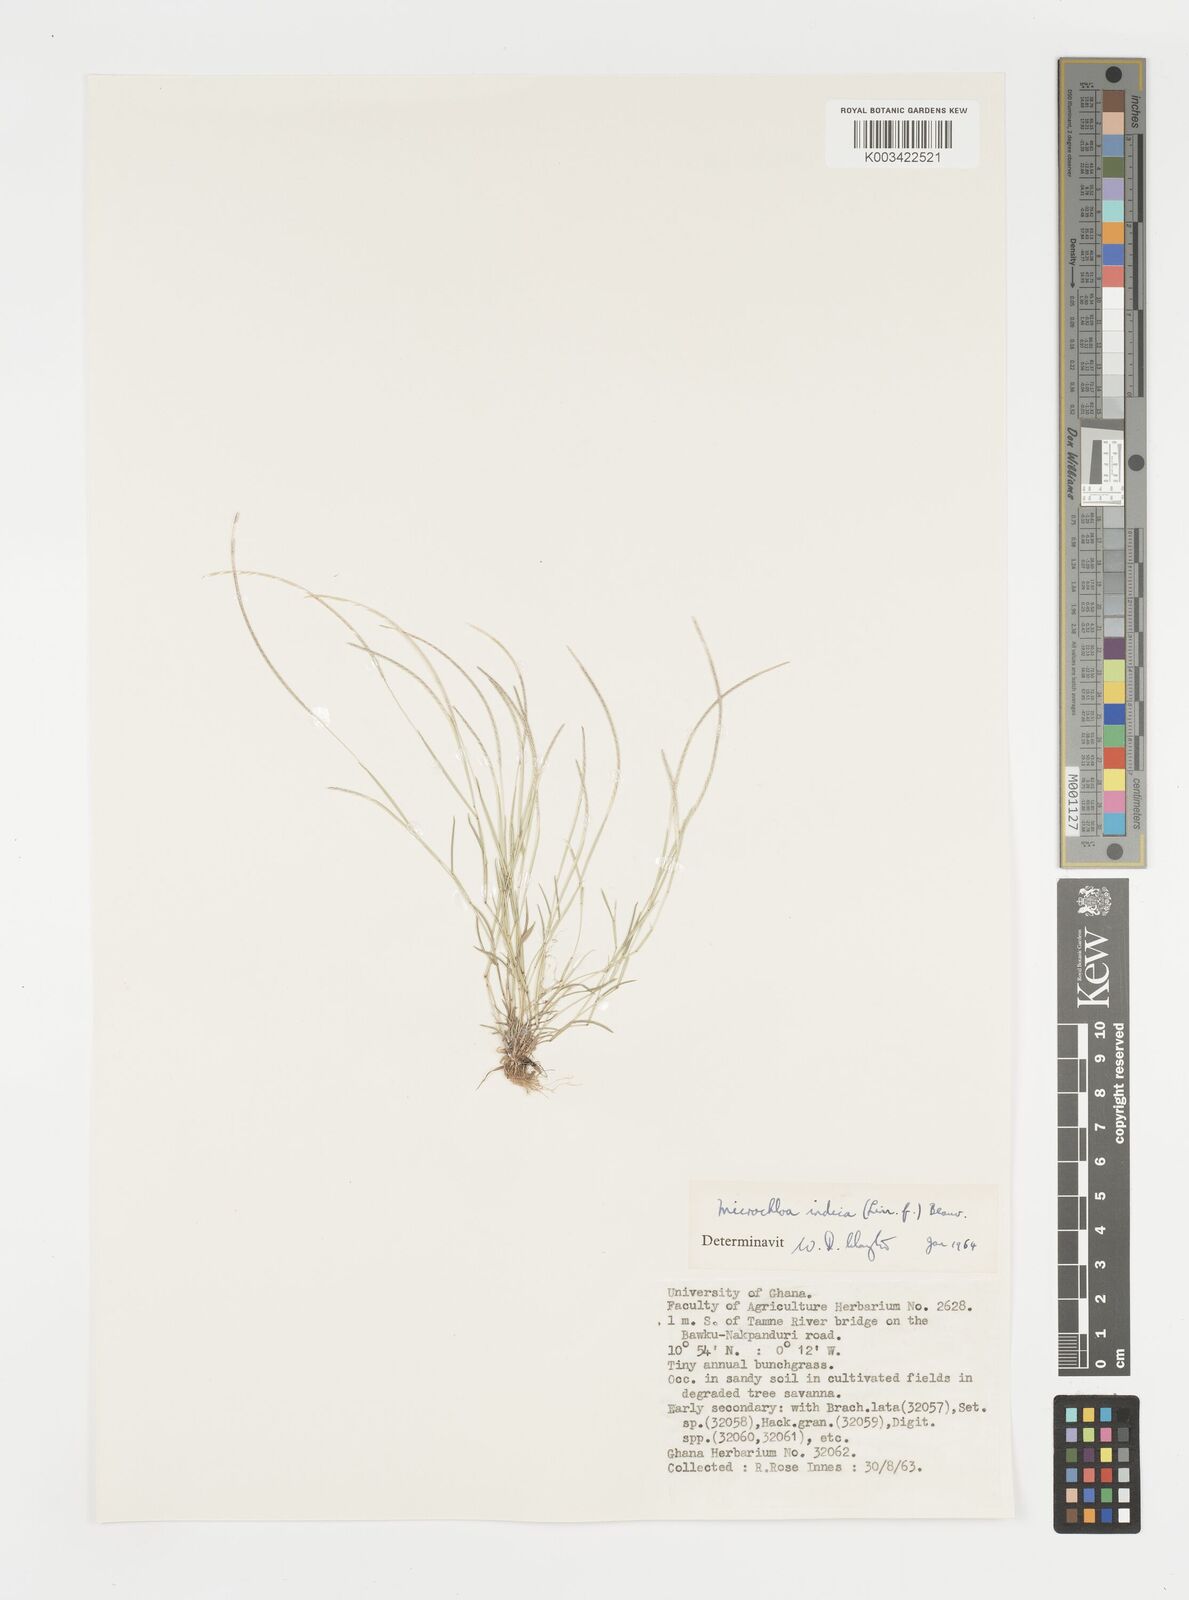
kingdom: Plantae
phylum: Tracheophyta
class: Liliopsida
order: Poales
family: Poaceae
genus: Microchloa
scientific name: Microchloa indica
